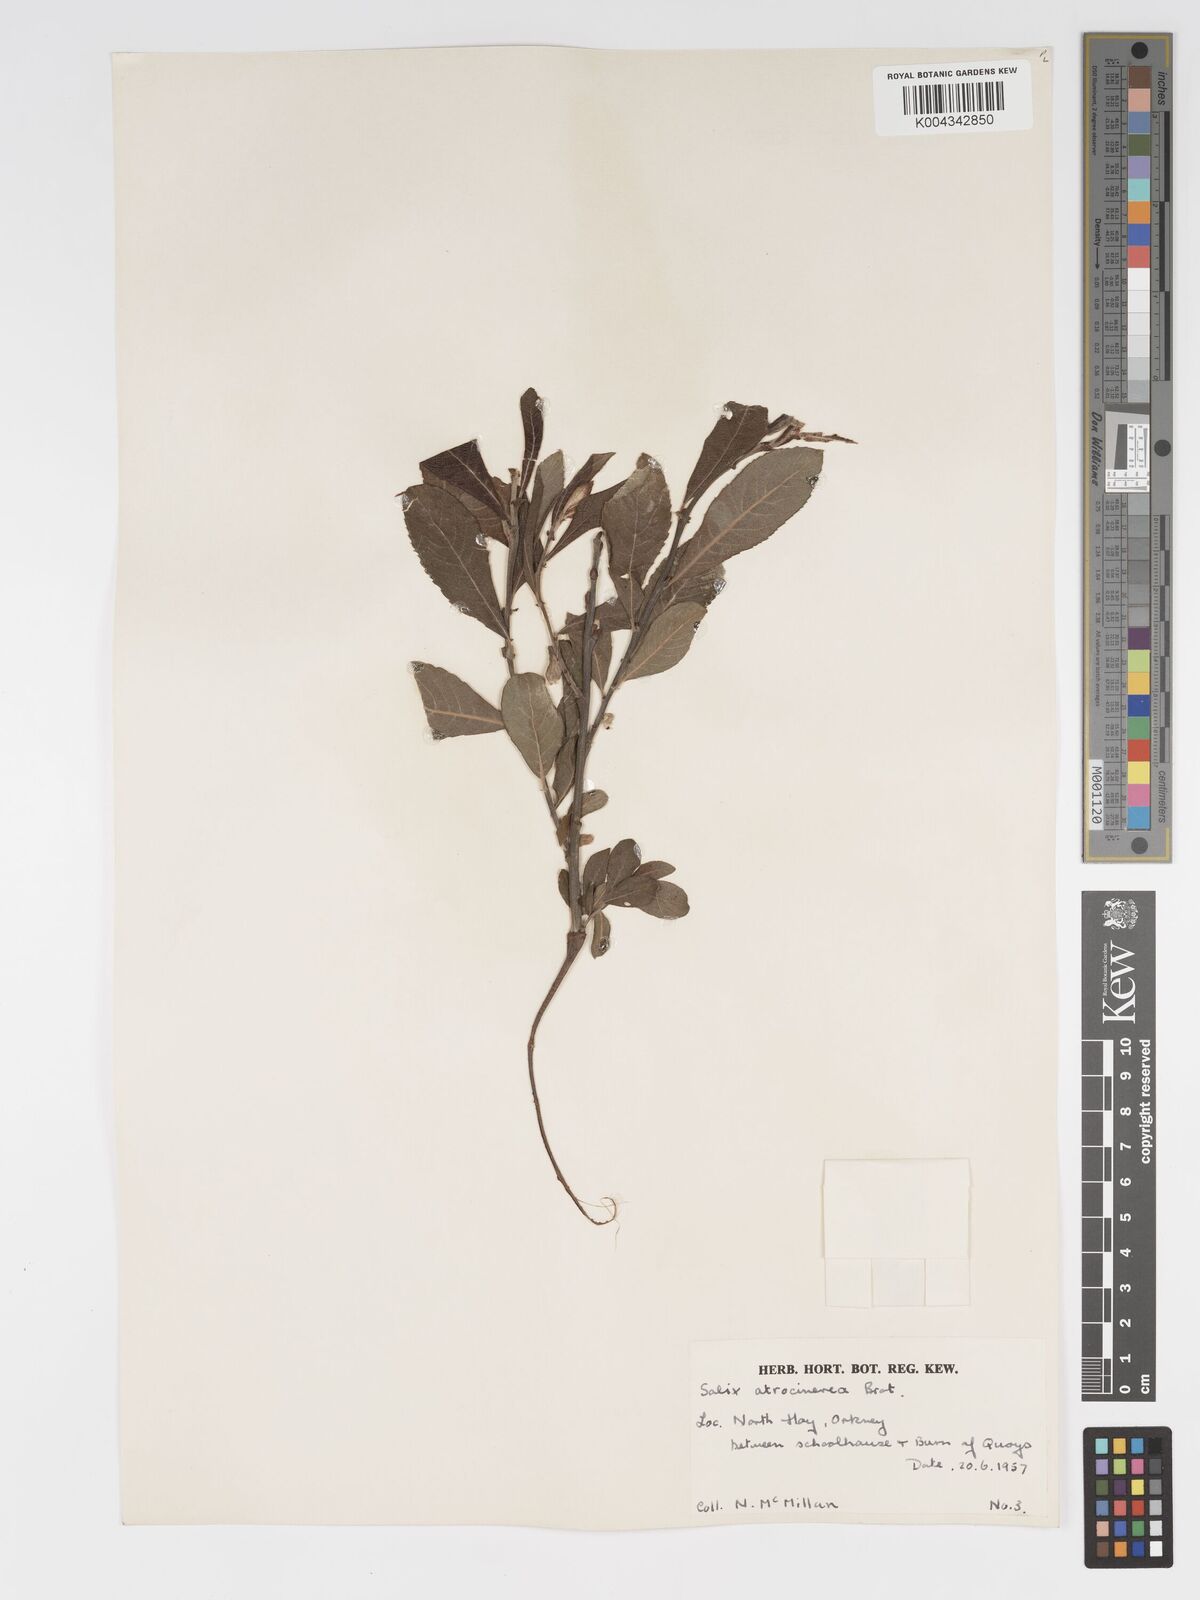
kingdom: Plantae
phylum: Tracheophyta
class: Magnoliopsida
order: Malpighiales
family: Salicaceae
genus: Salix
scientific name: Salix atrocinerea
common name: Rusty willow
